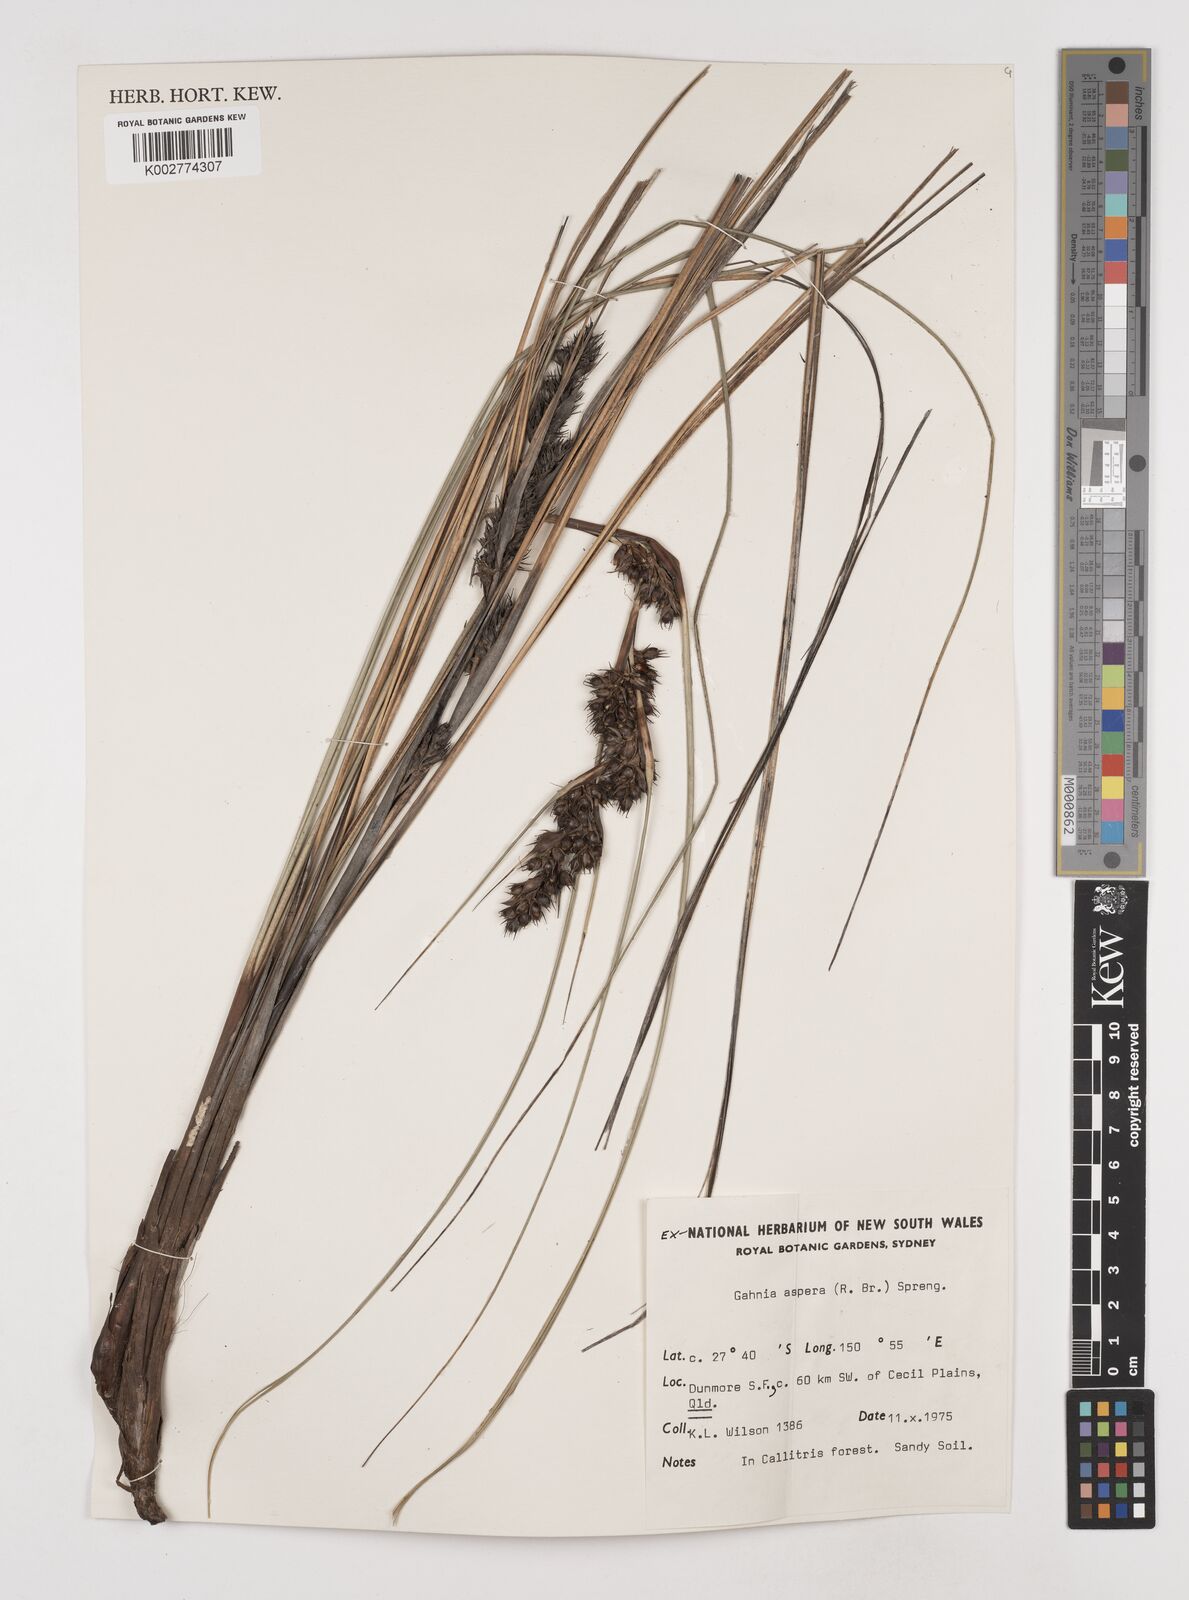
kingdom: Plantae
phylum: Tracheophyta
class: Liliopsida
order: Poales
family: Cyperaceae
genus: Gahnia
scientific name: Gahnia aspera
